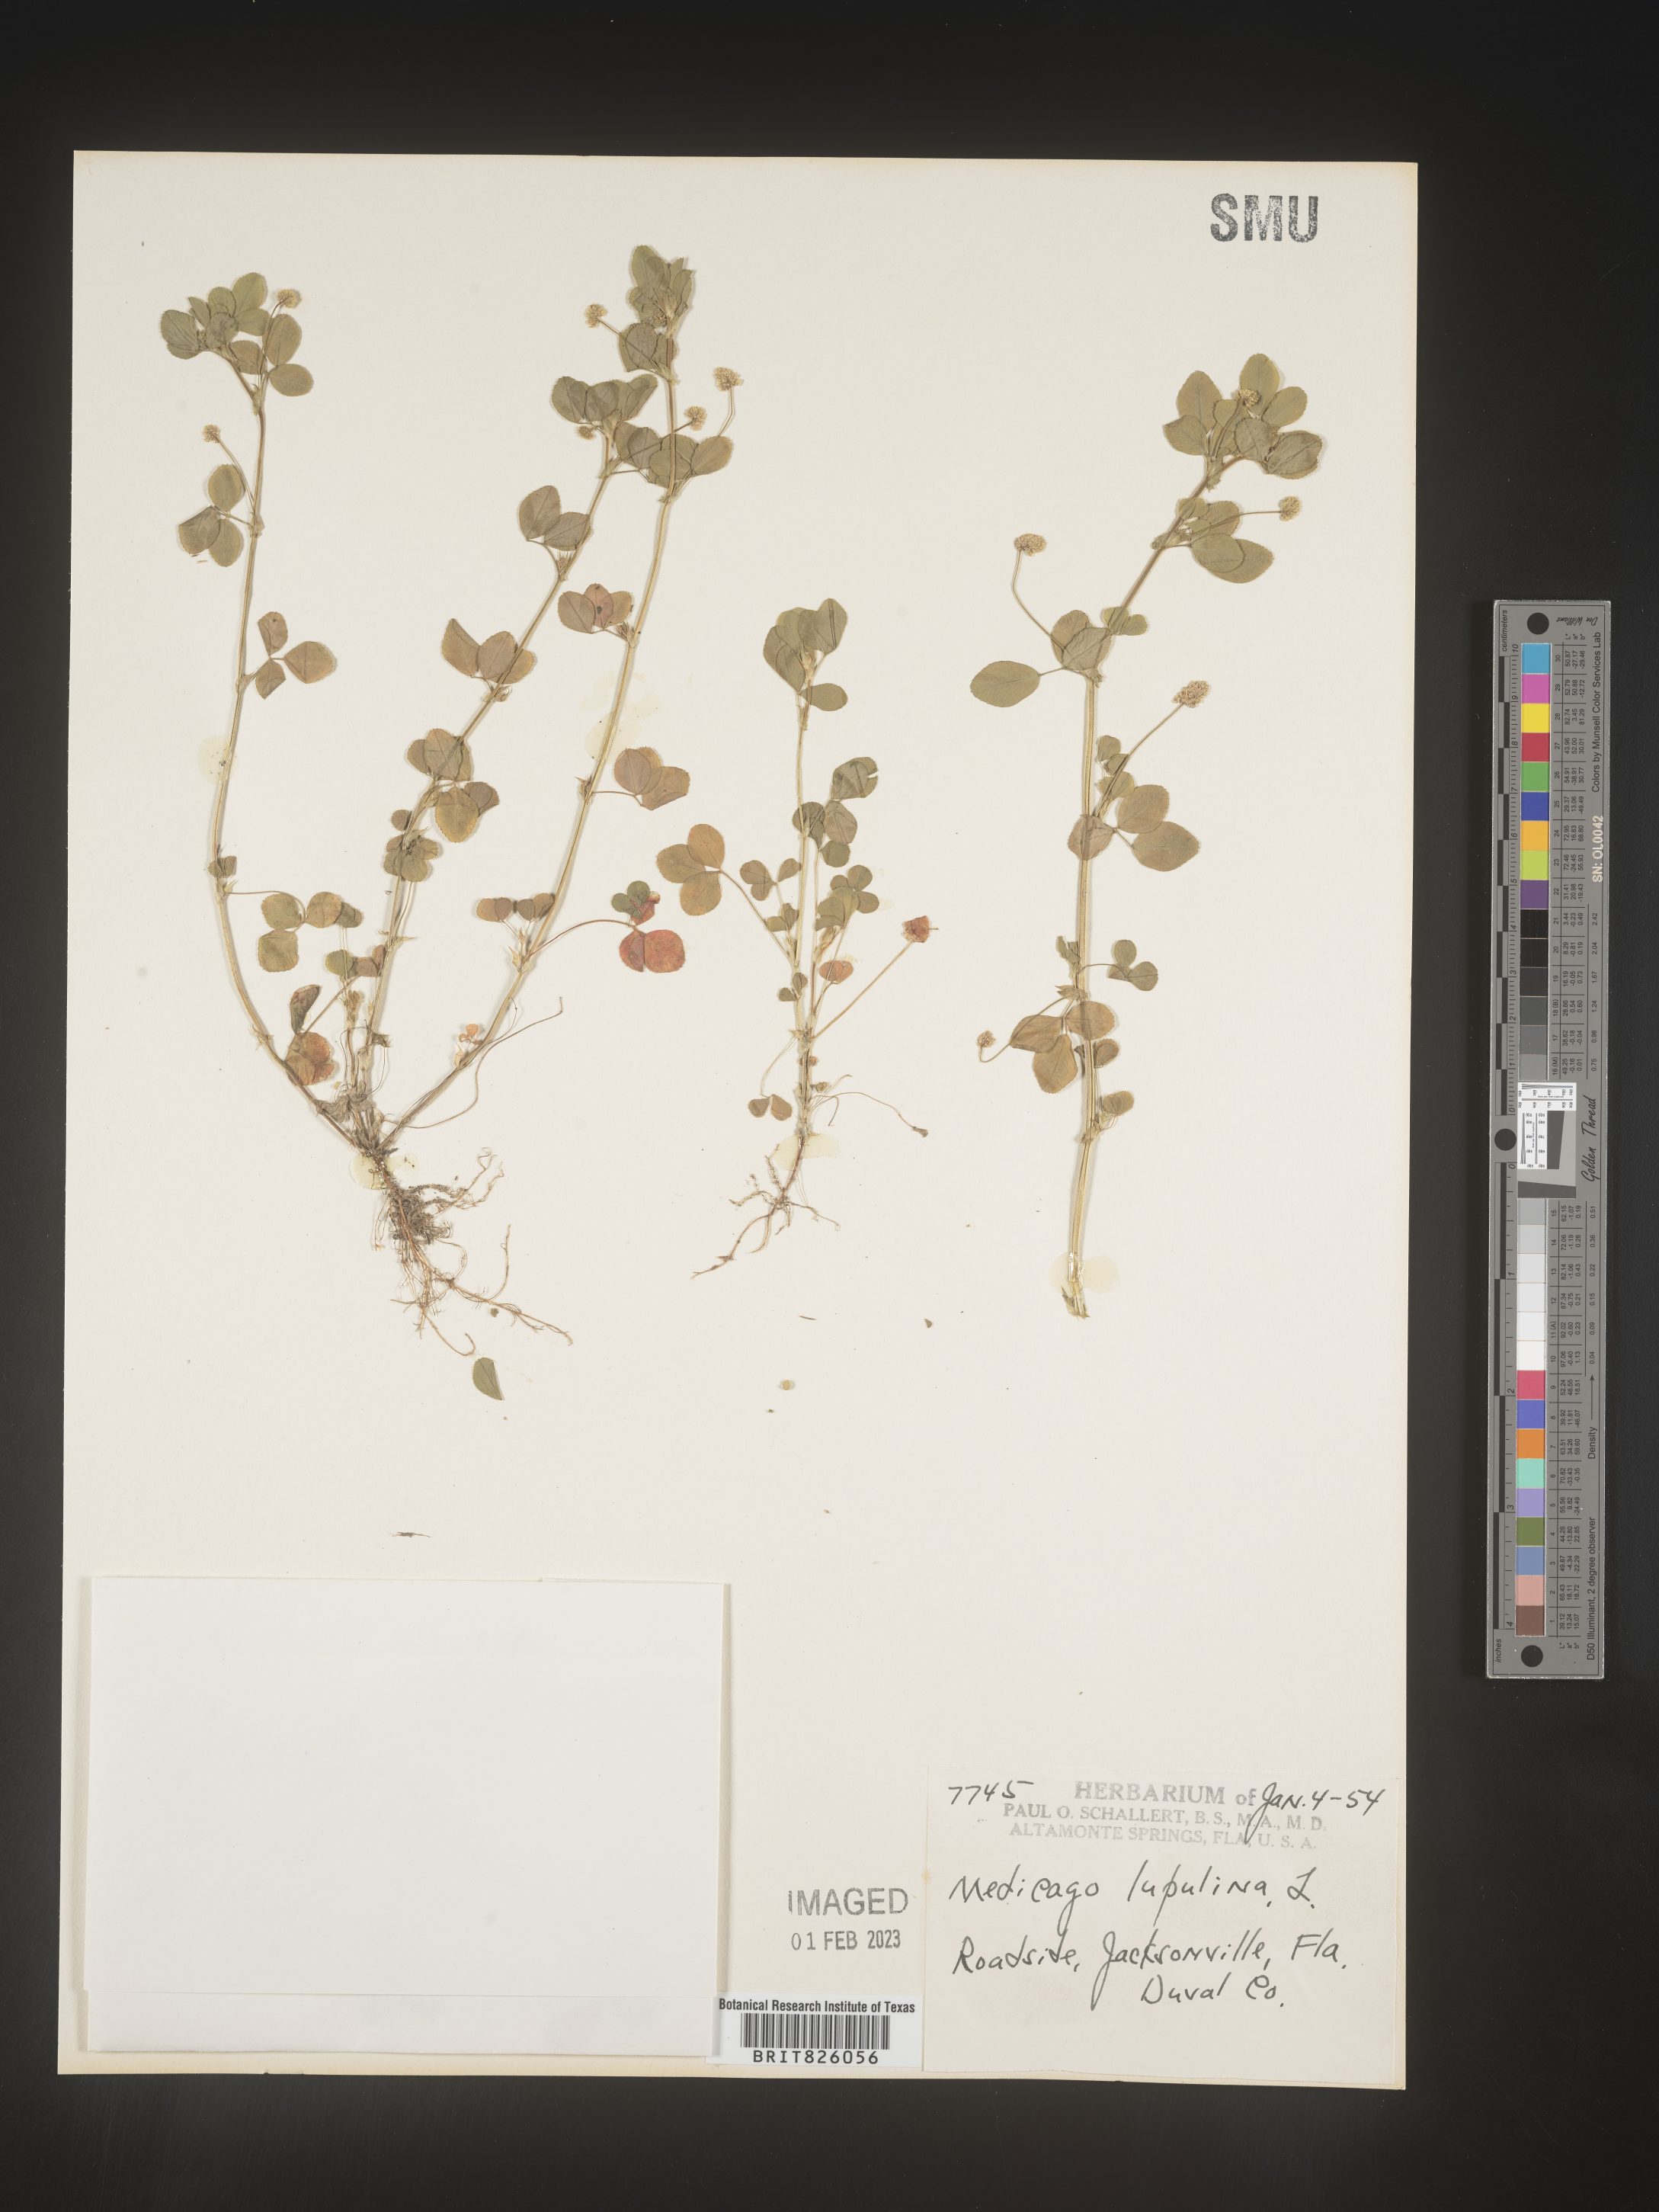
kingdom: Plantae
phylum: Tracheophyta
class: Magnoliopsida
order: Fabales
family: Fabaceae
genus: Medicago
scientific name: Medicago lupulina
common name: Black medick
